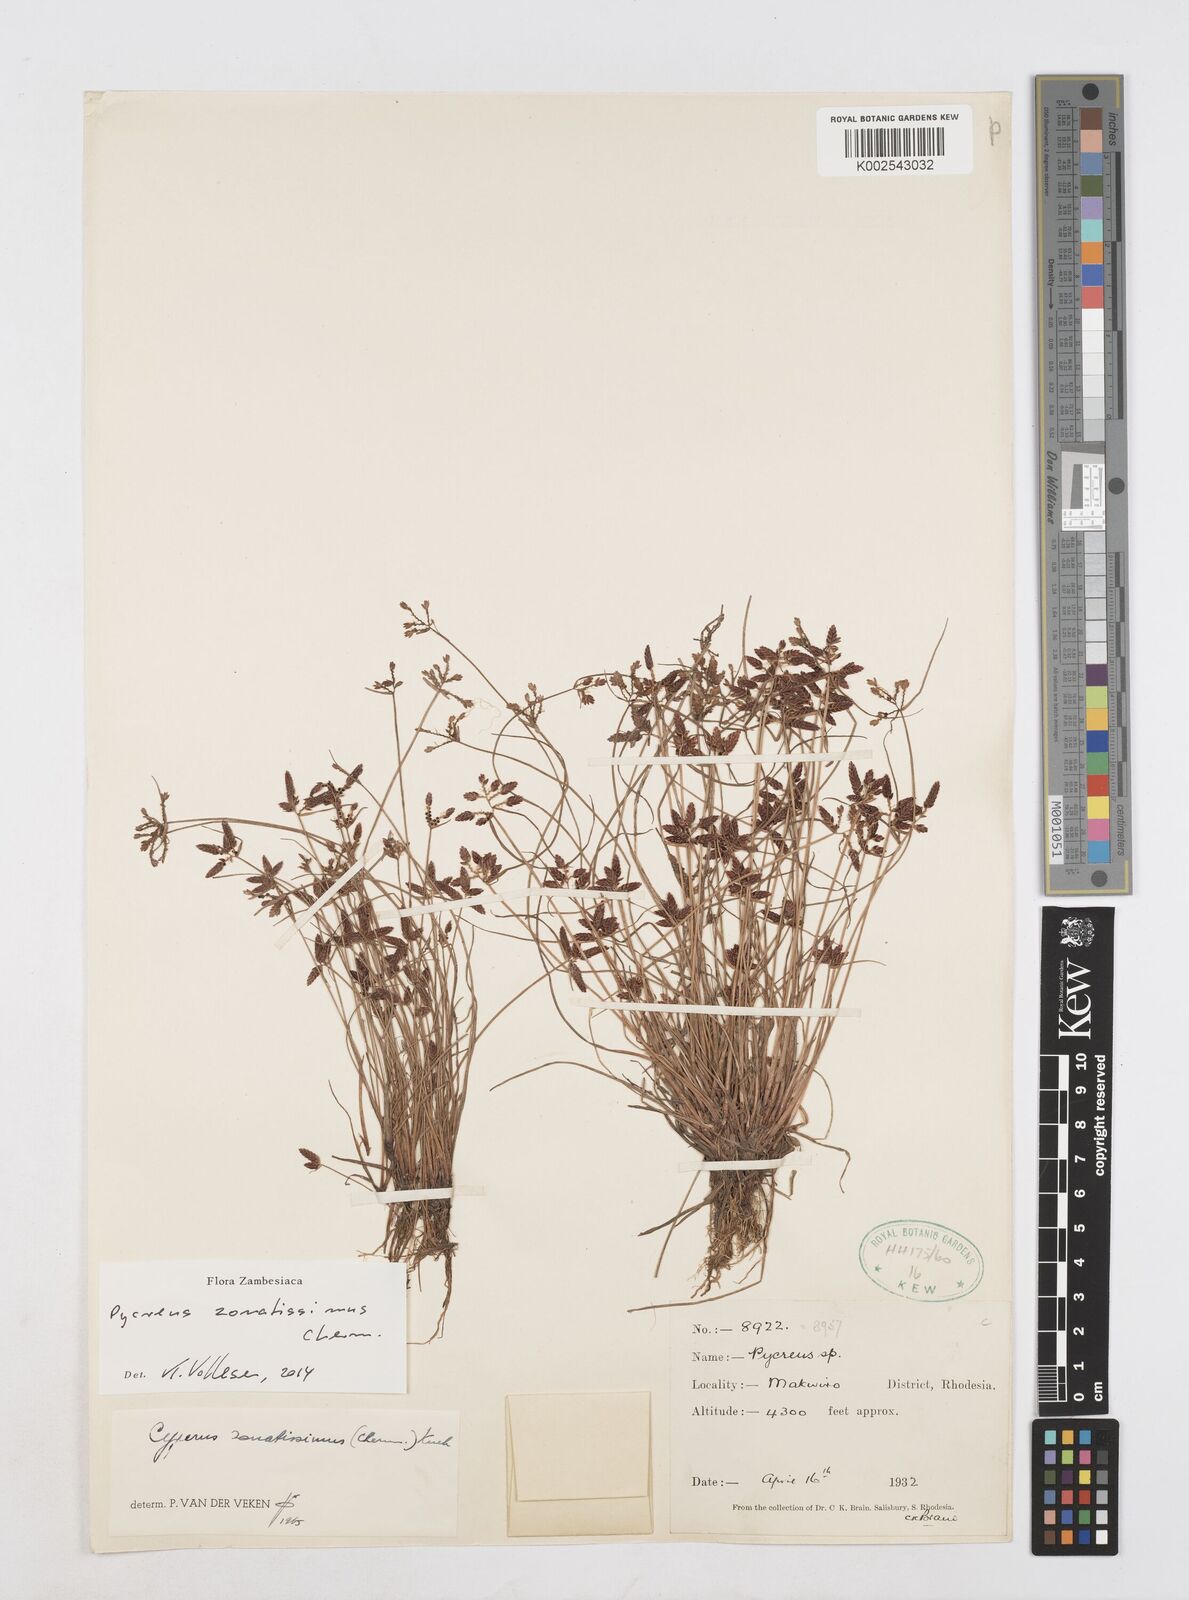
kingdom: Plantae
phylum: Tracheophyta
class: Liliopsida
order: Poales
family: Cyperaceae
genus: Cyperus
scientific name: Cyperus zonatissimus
